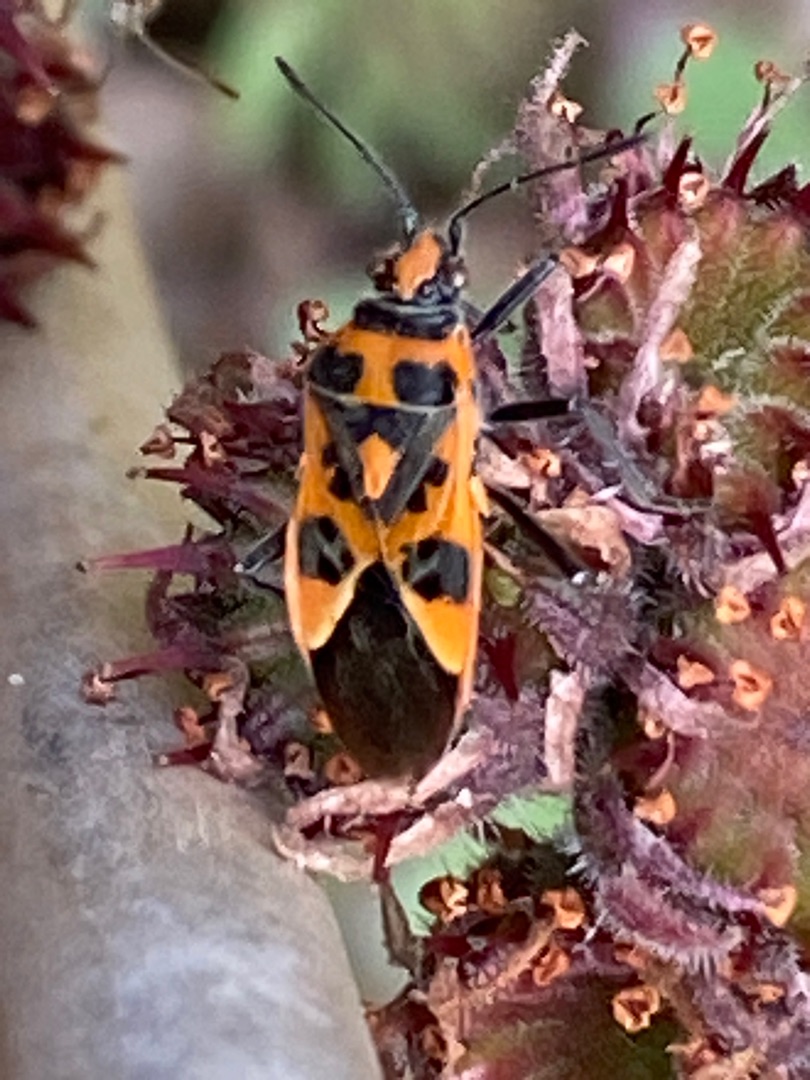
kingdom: Animalia
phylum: Arthropoda
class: Insecta
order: Hemiptera
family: Rhopalidae
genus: Corizus
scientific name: Corizus hyoscyami
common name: Rød kanttæge
